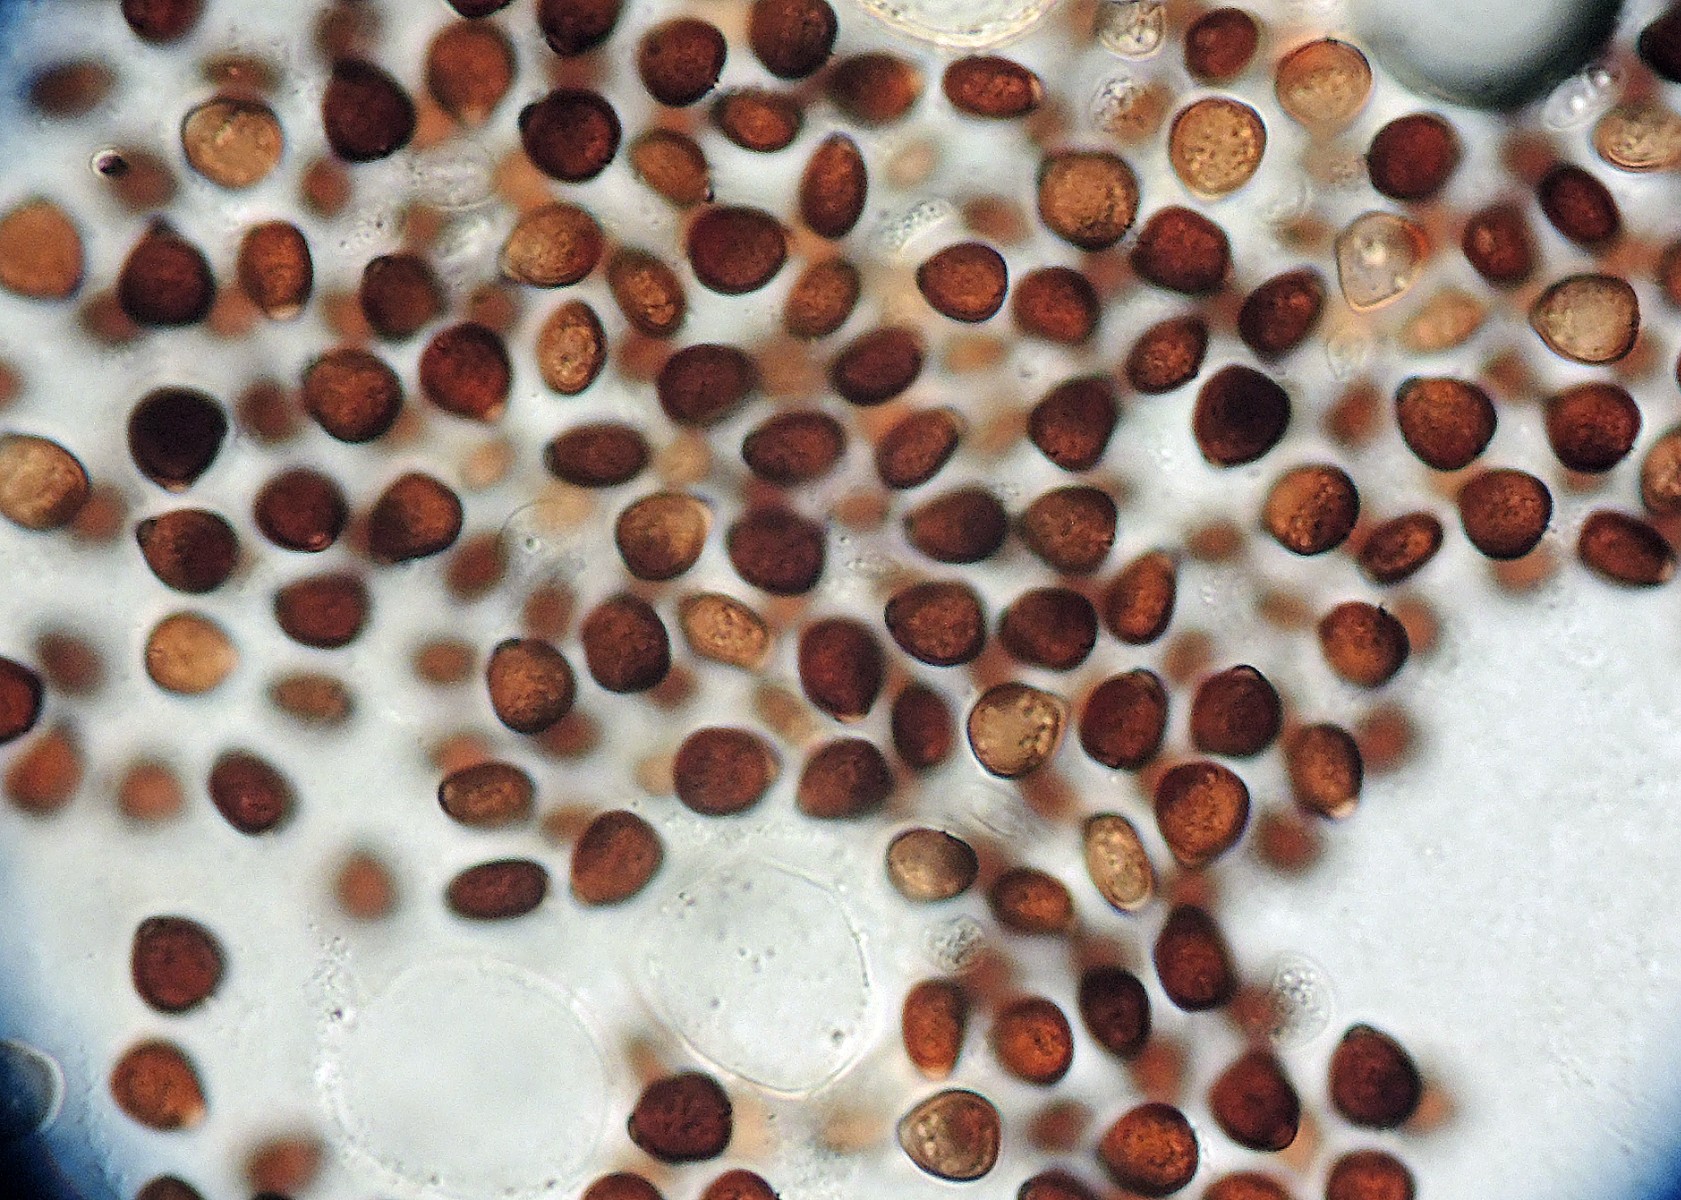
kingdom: Fungi
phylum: Basidiomycota
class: Agaricomycetes
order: Agaricales
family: Psathyrellaceae
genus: Narcissea
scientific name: Narcissea ephemeroides
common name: ring-blækhat
